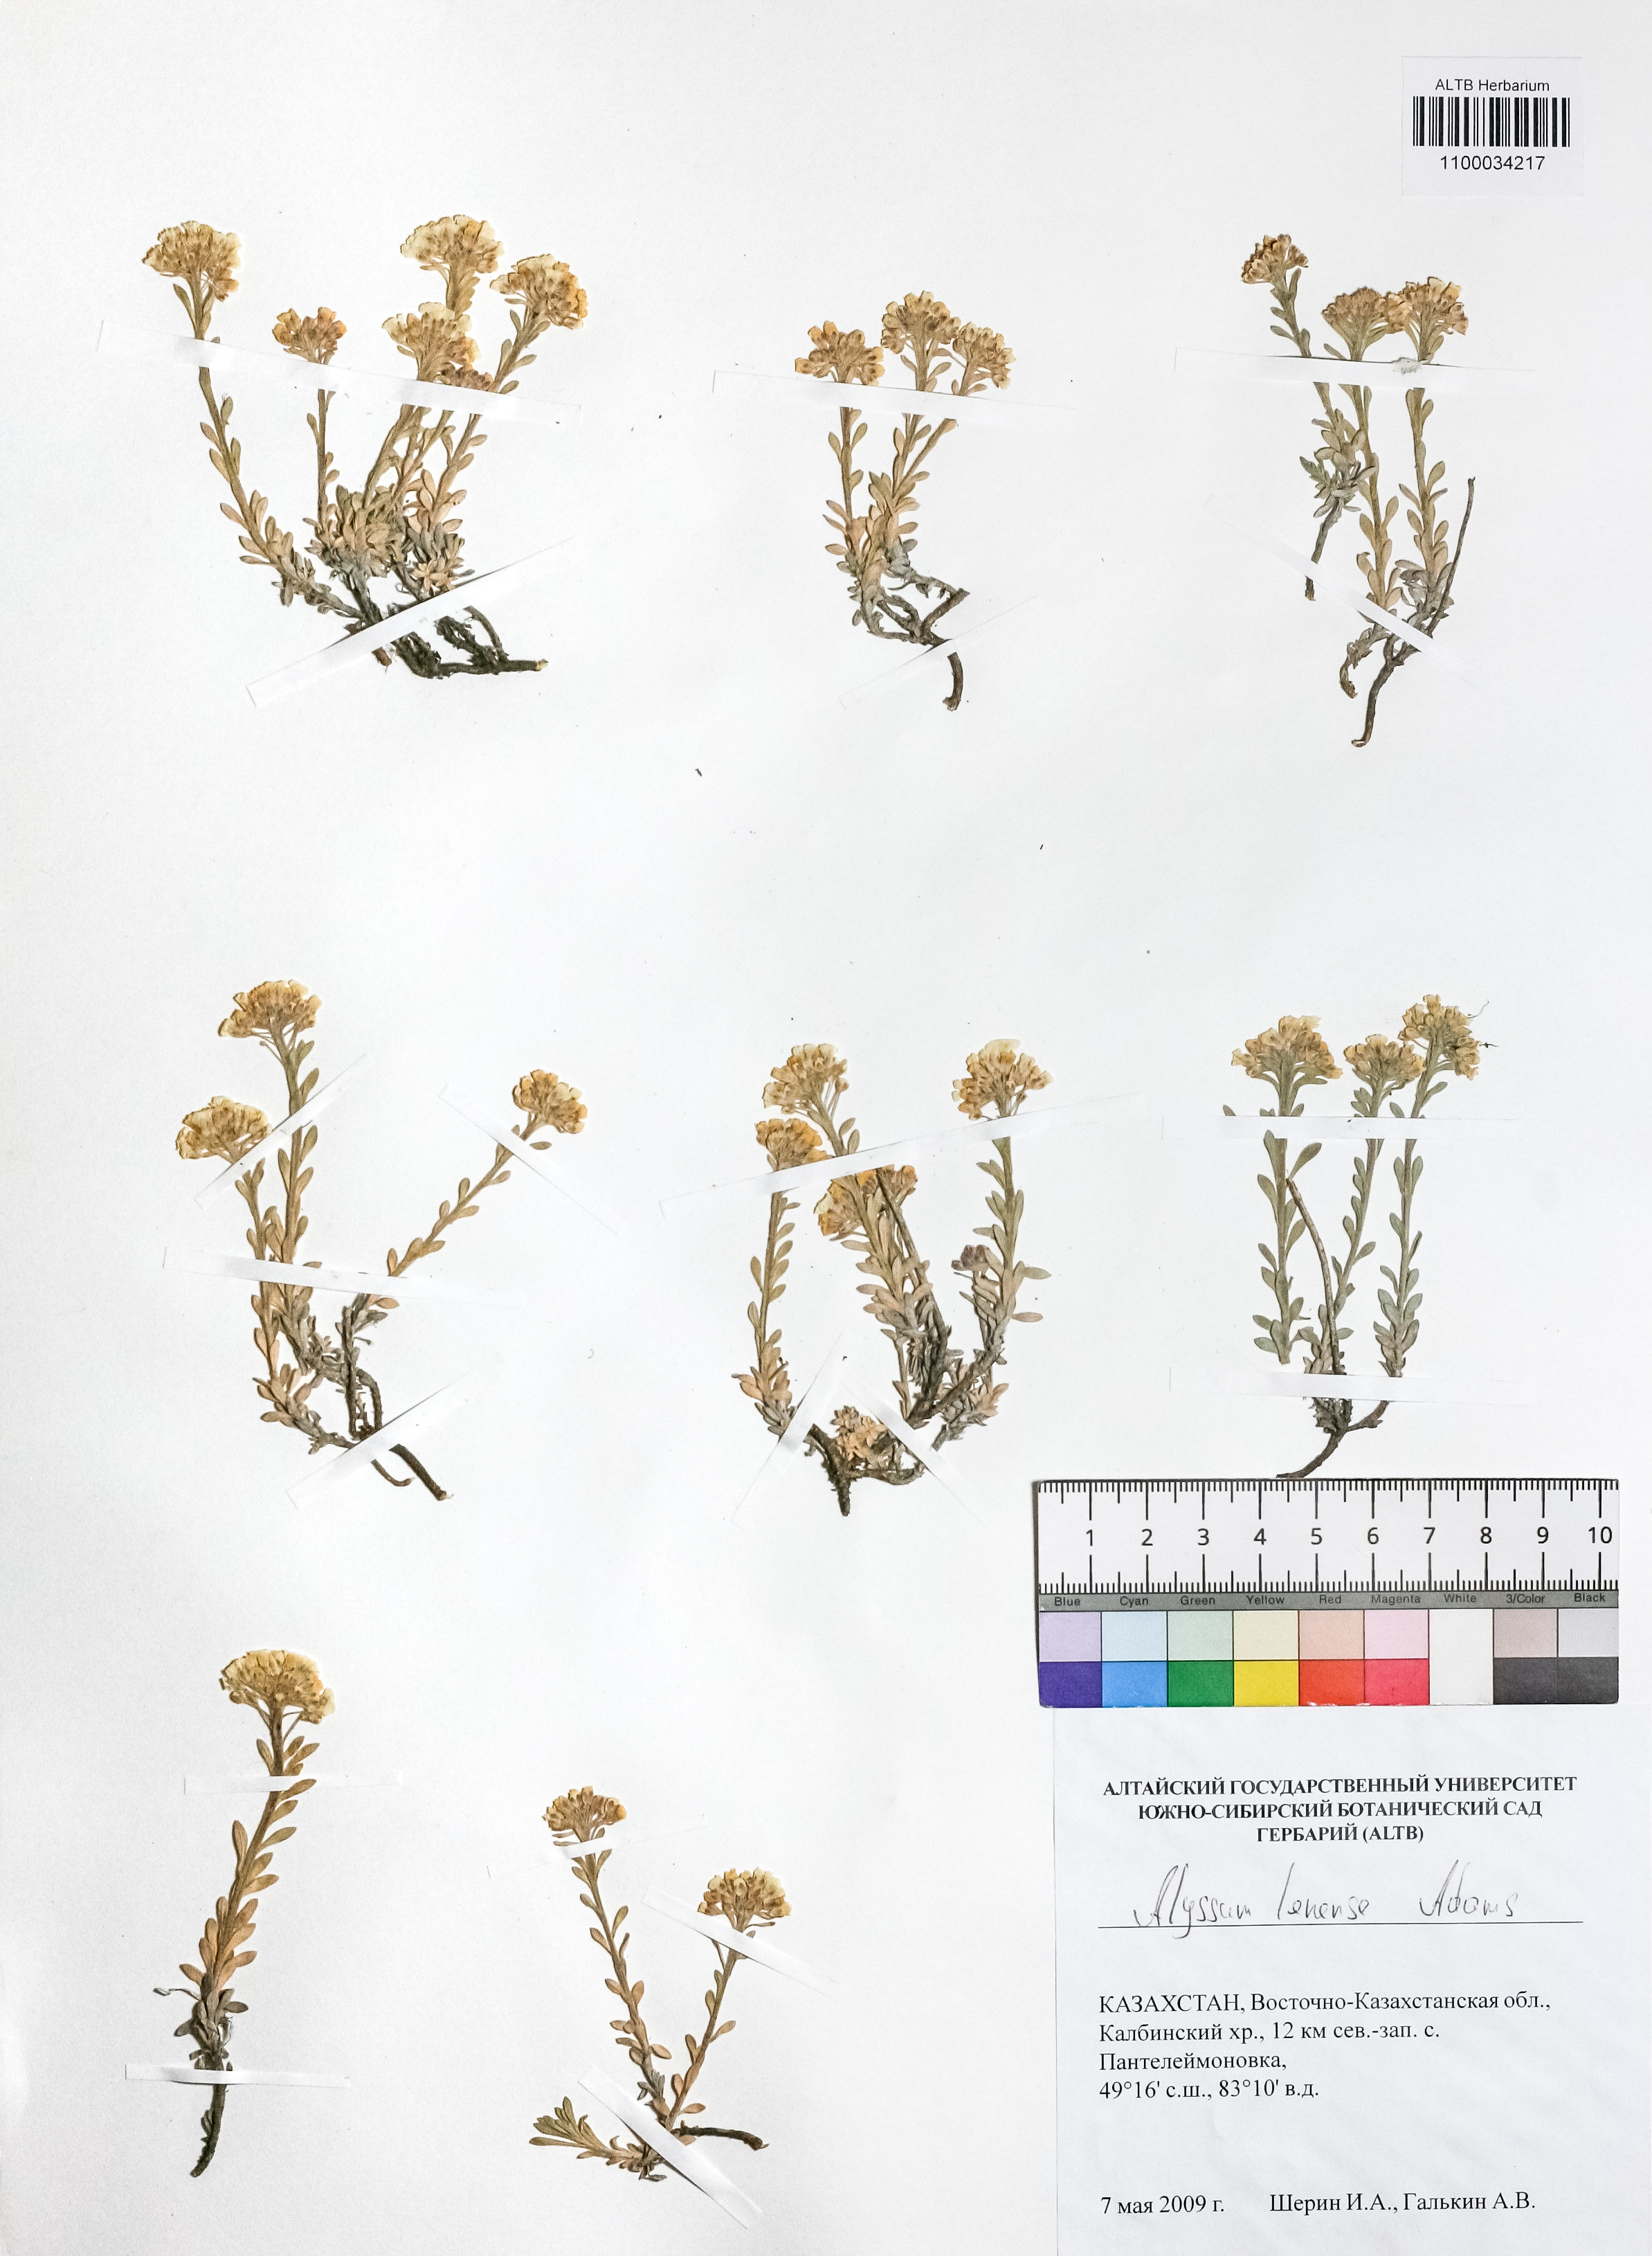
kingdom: Plantae
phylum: Tracheophyta
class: Magnoliopsida
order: Brassicales
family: Brassicaceae
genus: Alyssum
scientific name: Alyssum lenense
